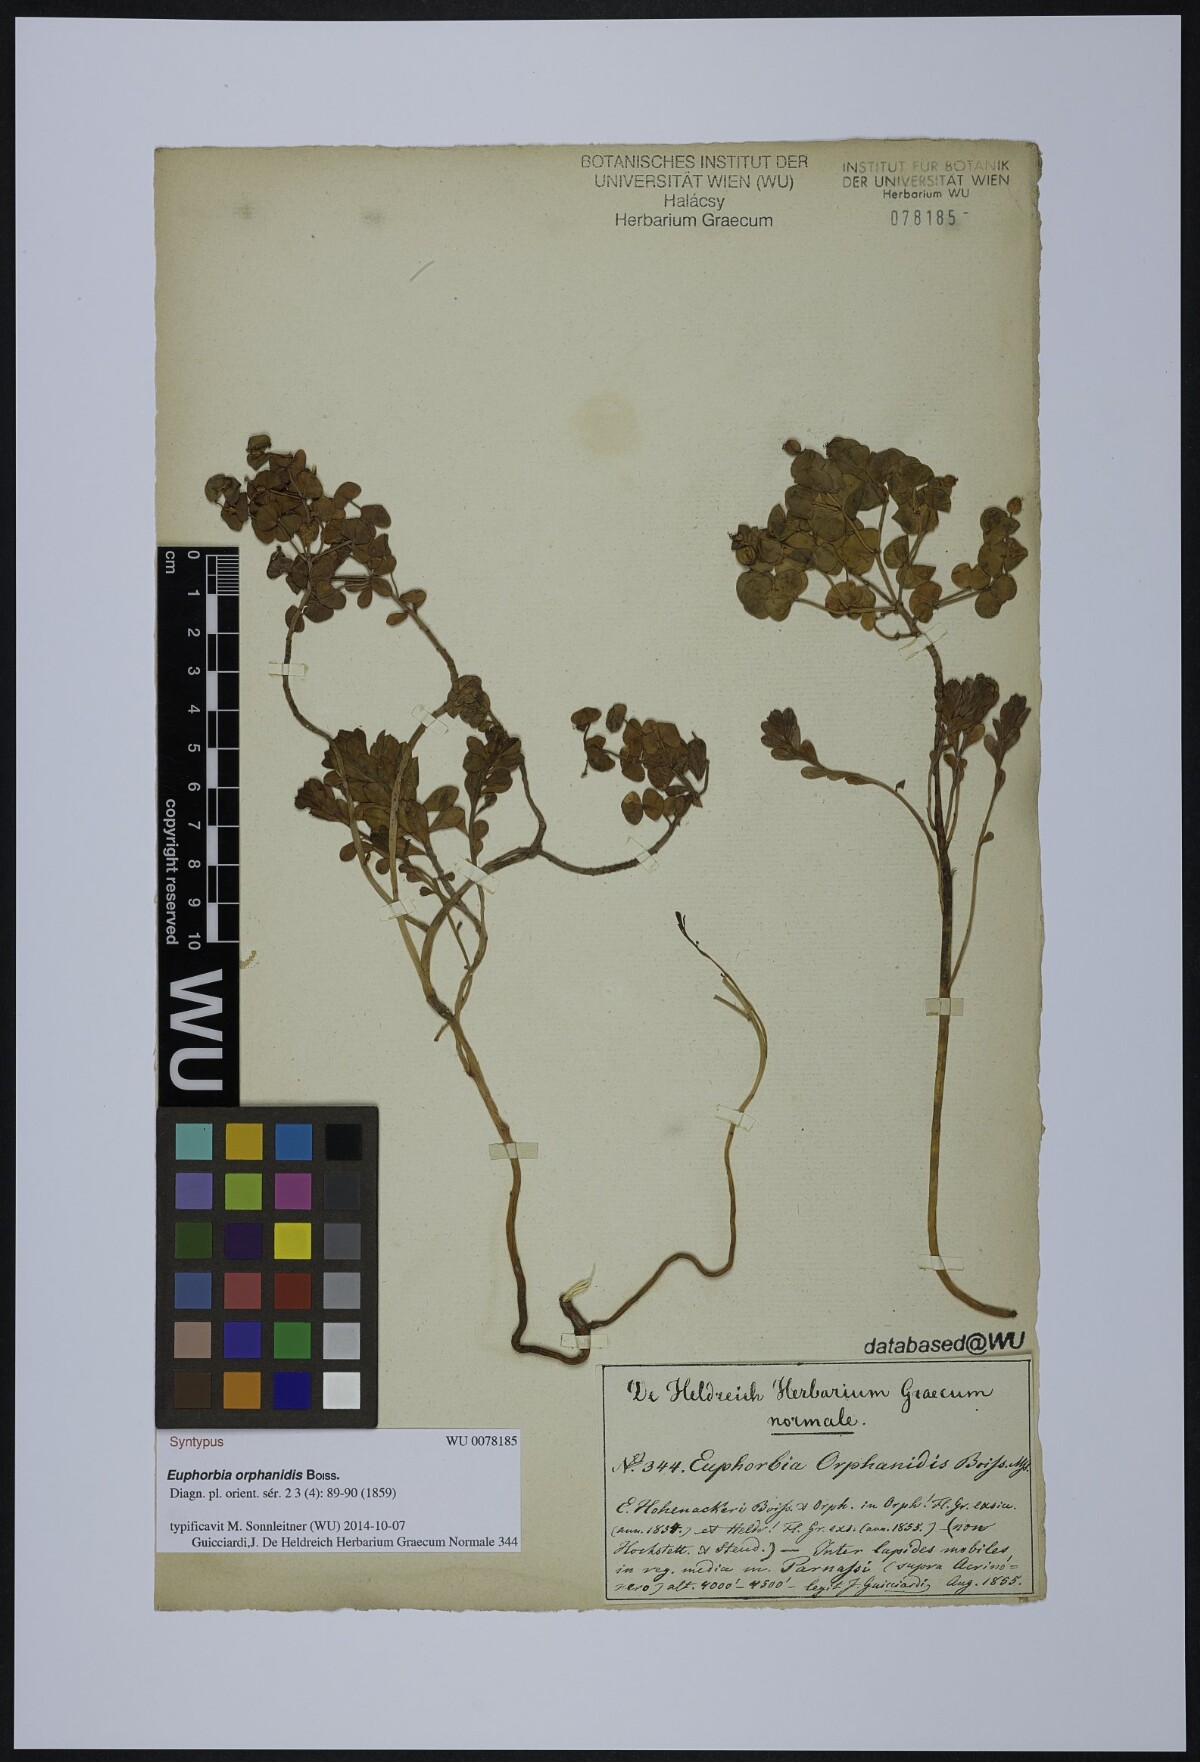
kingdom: Plantae
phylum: Tracheophyta
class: Magnoliopsida
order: Malpighiales
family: Euphorbiaceae
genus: Euphorbia
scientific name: Euphorbia orphanidis
